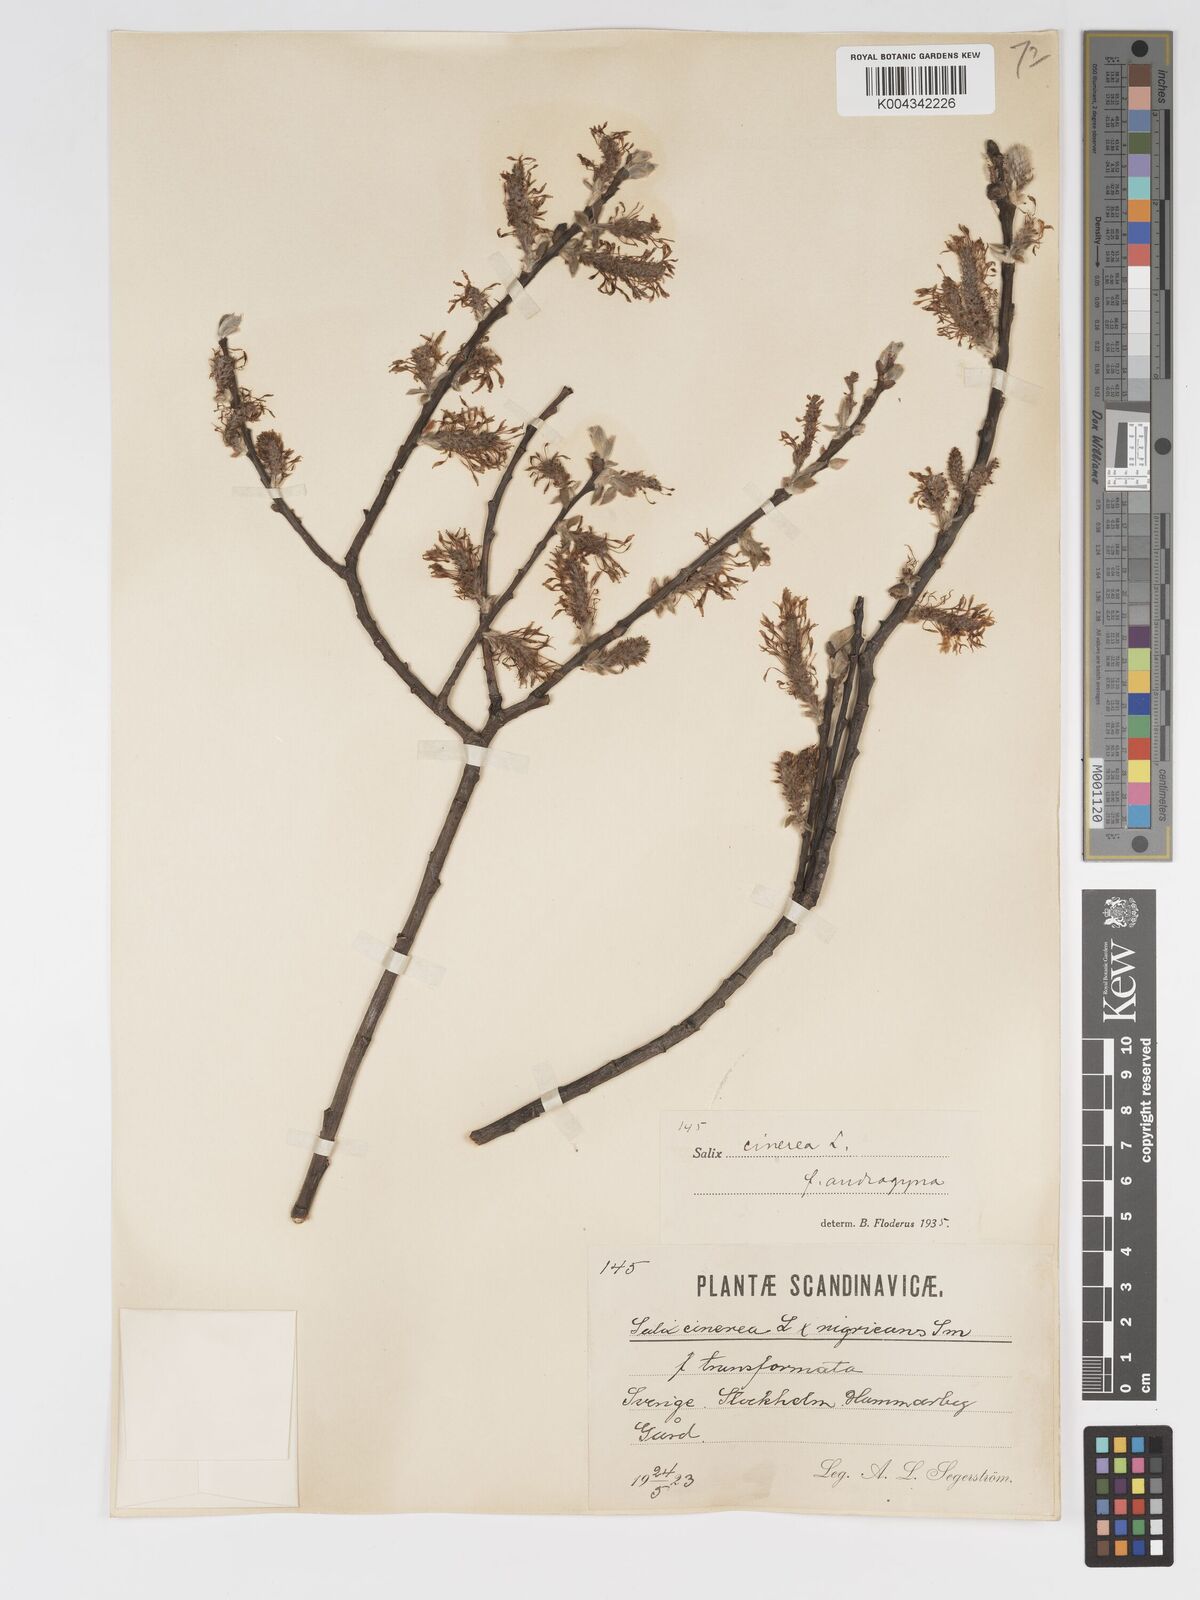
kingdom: Plantae
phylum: Tracheophyta
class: Magnoliopsida
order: Malpighiales
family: Salicaceae
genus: Salix
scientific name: Salix
